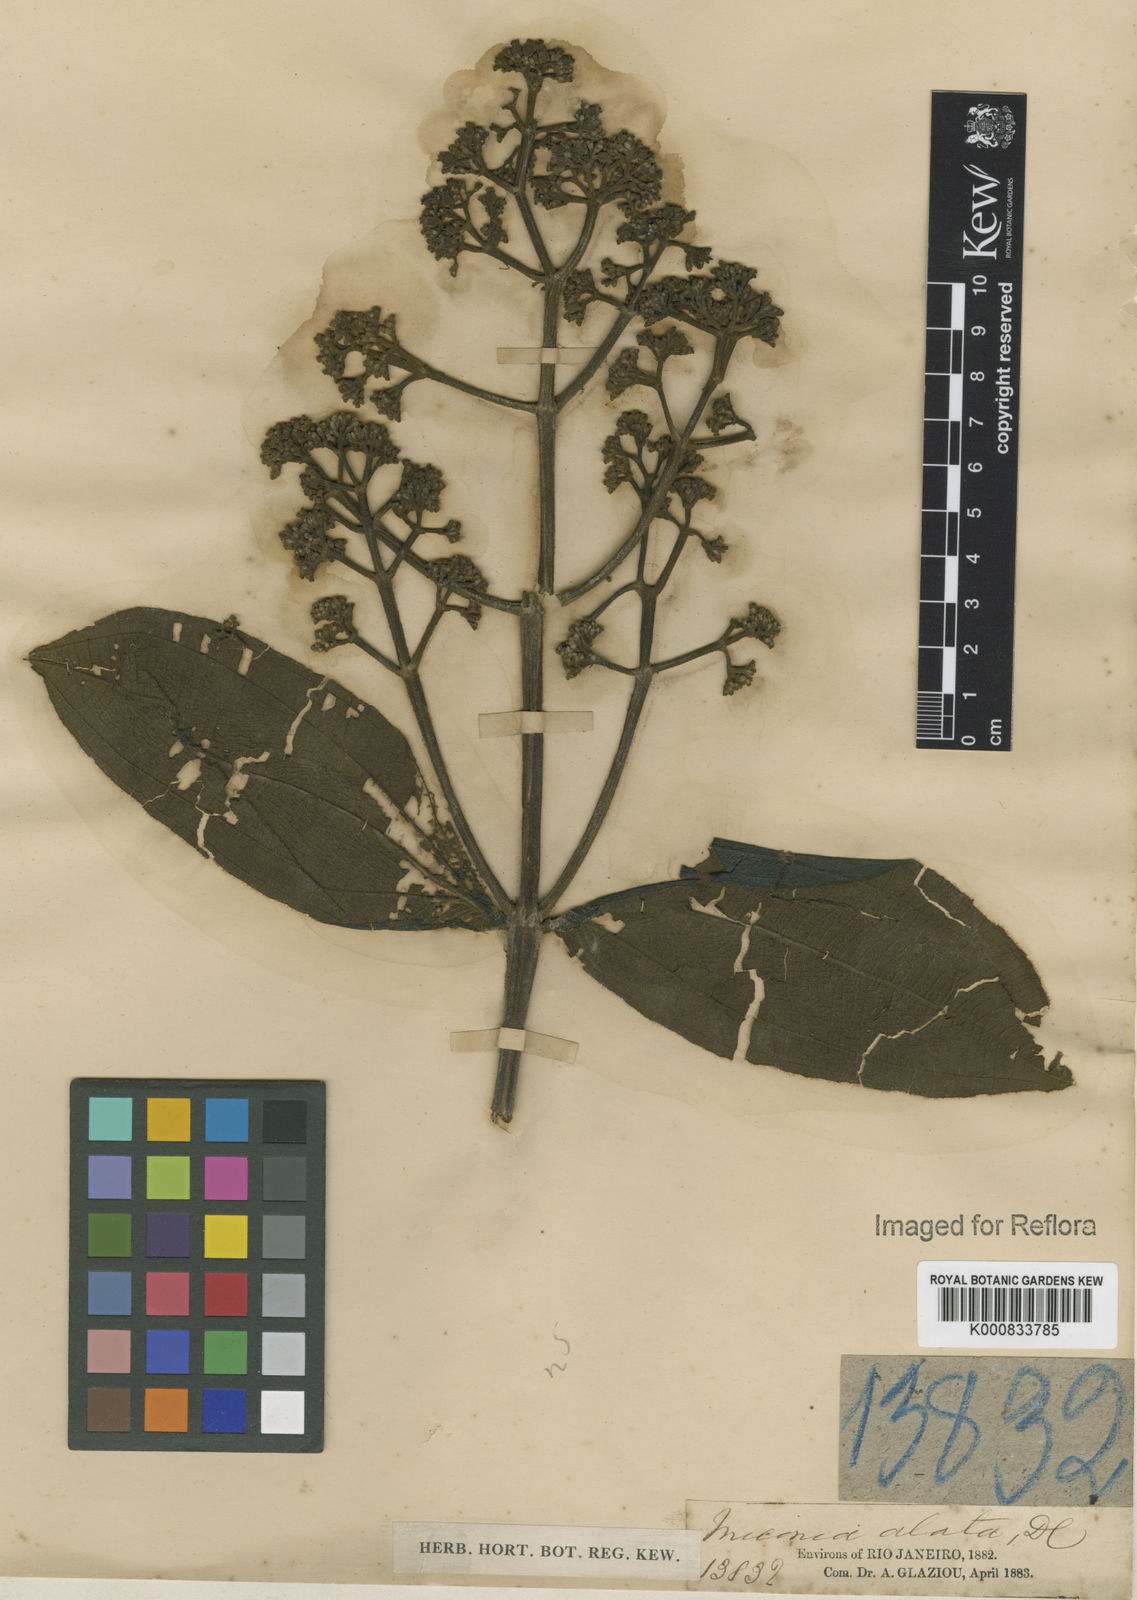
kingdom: Plantae
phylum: Tracheophyta
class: Magnoliopsida
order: Myrtales
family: Melastomataceae
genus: Miconia
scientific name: Miconia alata
